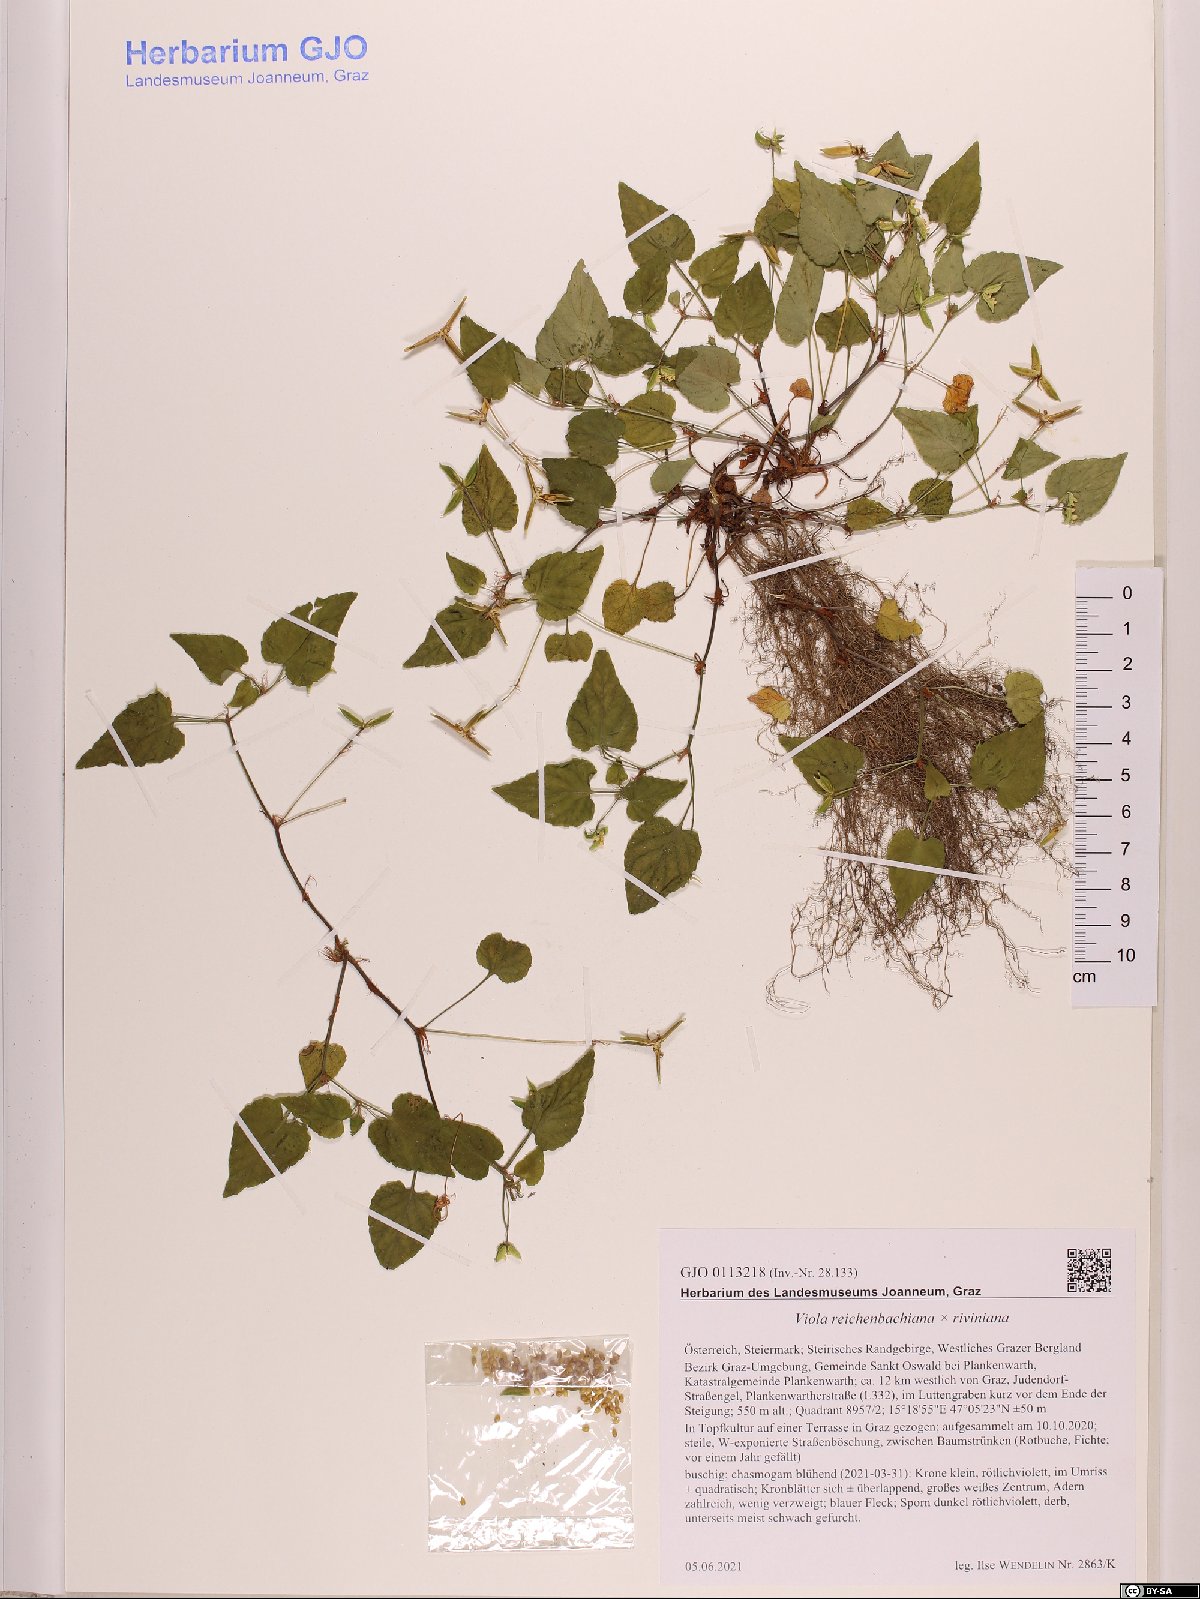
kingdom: Plantae
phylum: Tracheophyta
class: Magnoliopsida
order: Malpighiales
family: Violaceae
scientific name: Violaceae
